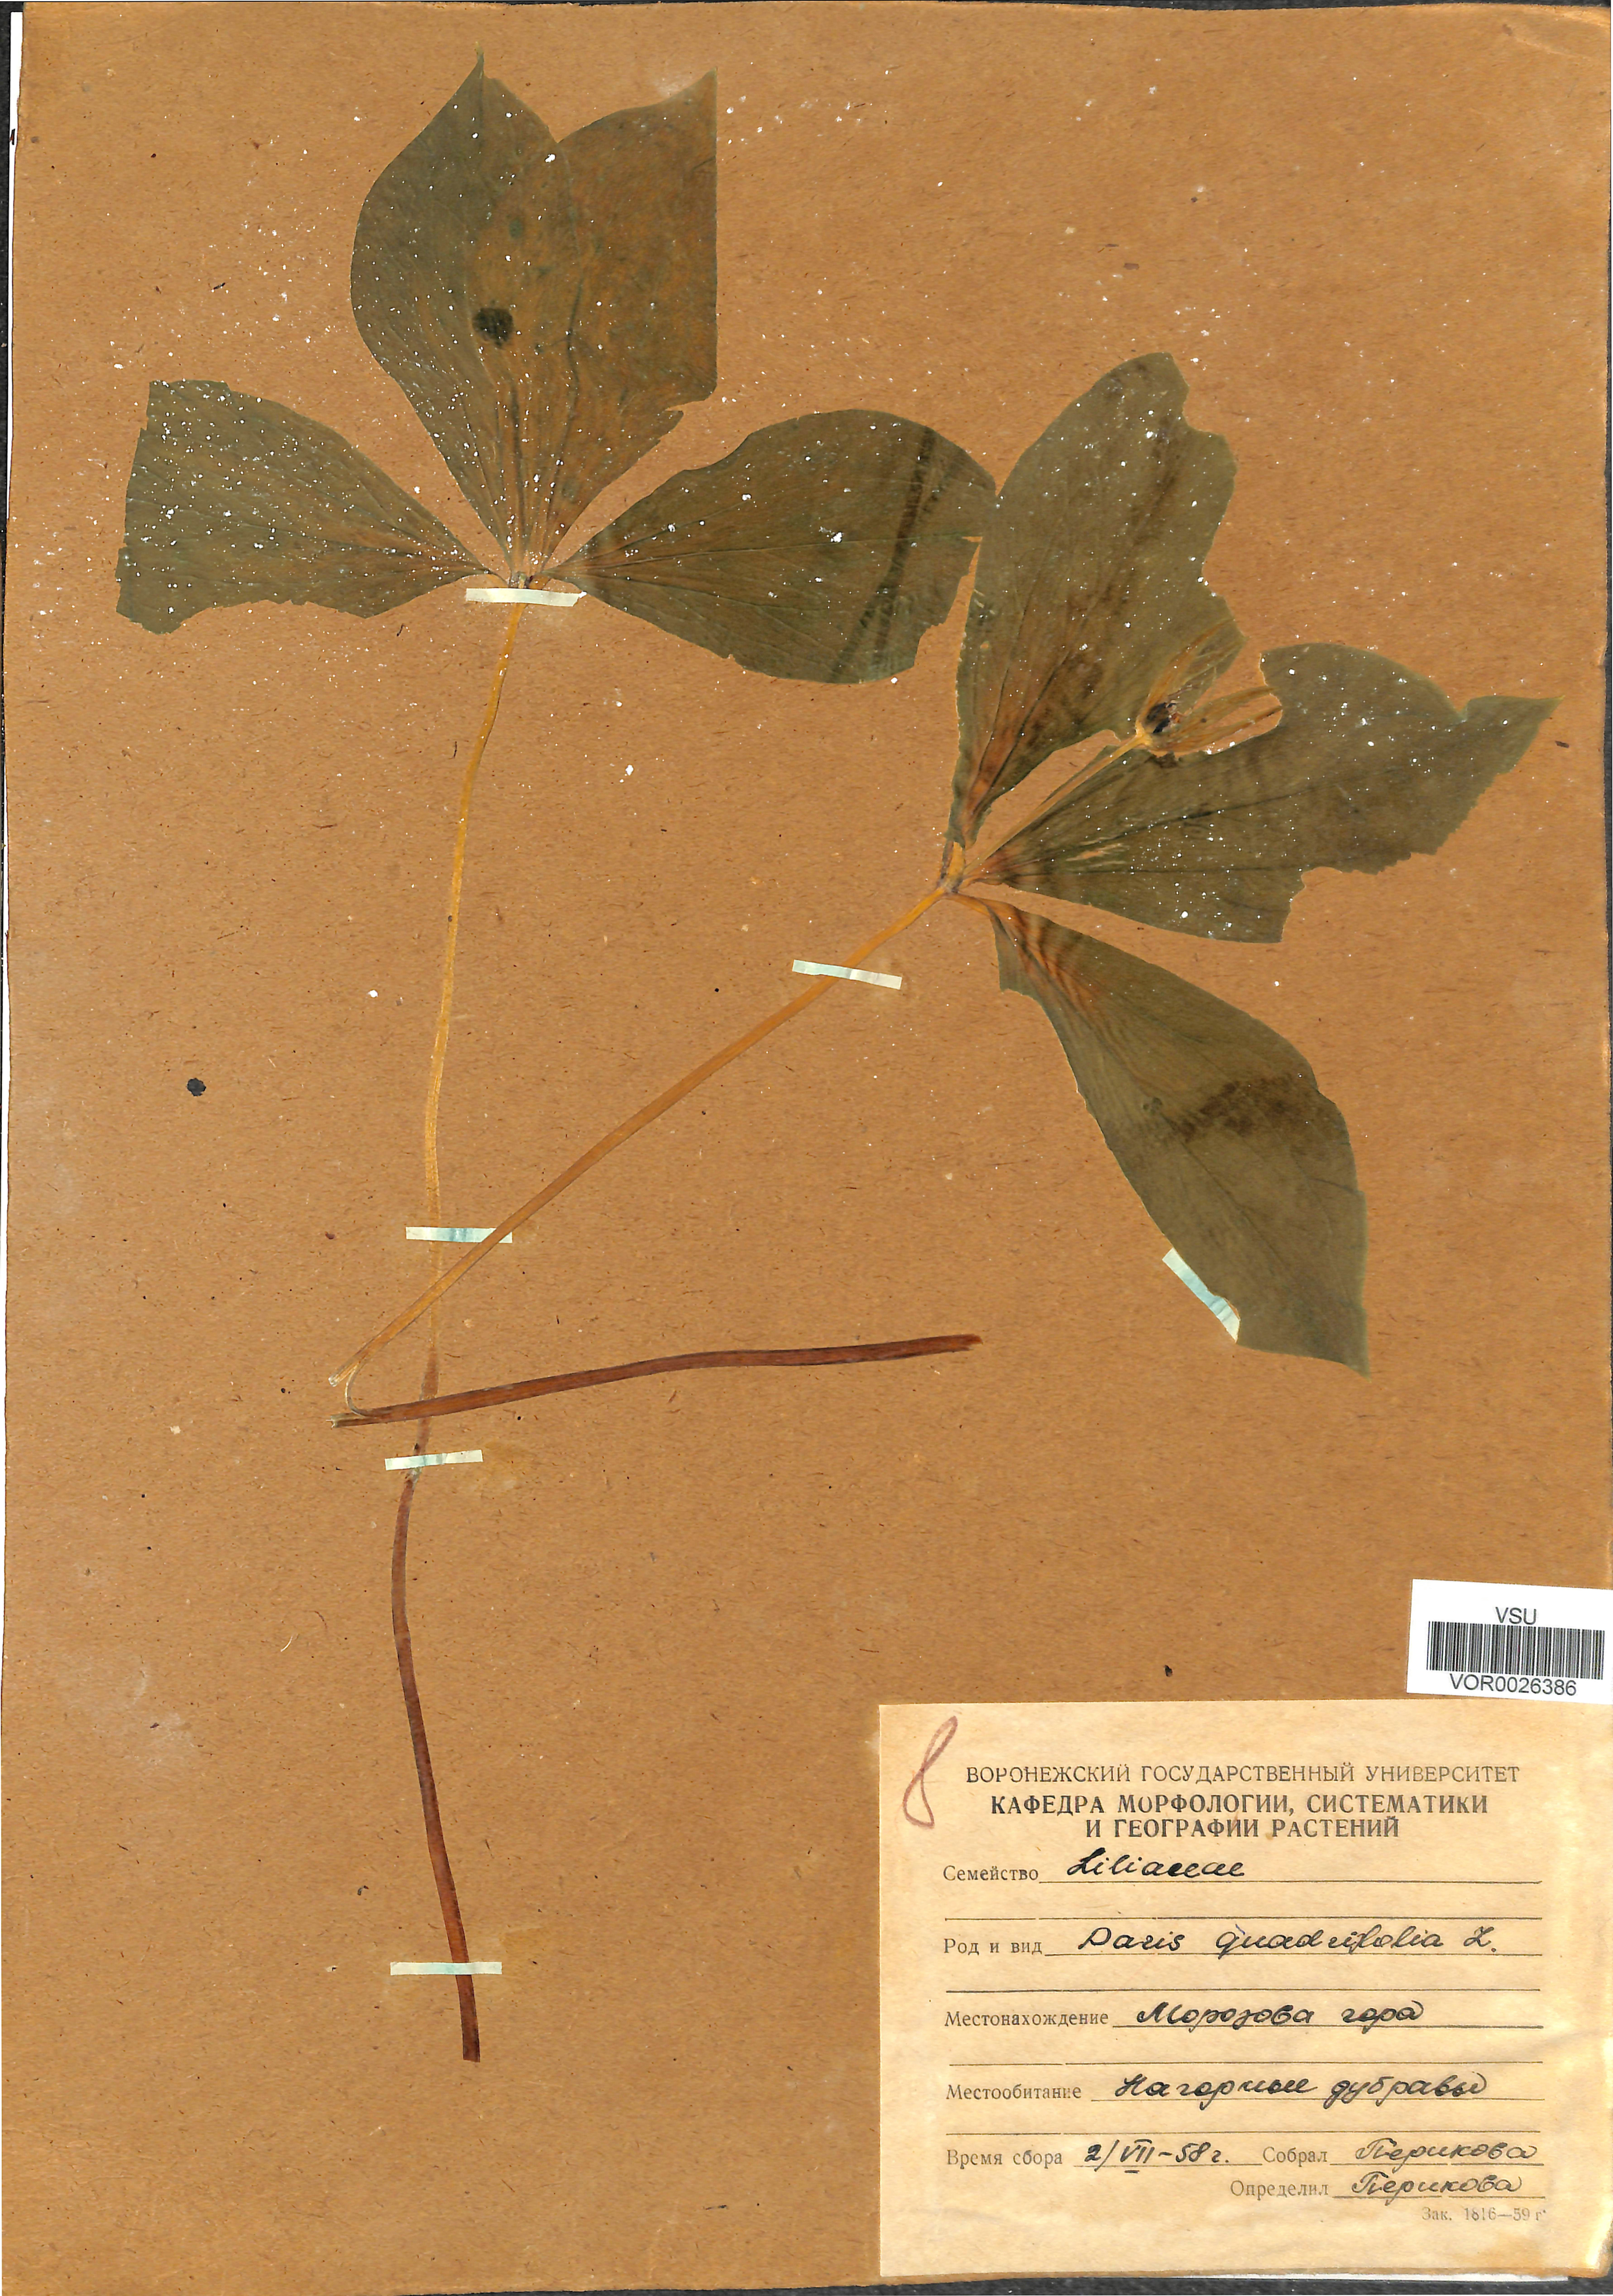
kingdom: Plantae
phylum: Tracheophyta
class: Liliopsida
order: Liliales
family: Melanthiaceae
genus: Paris
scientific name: Paris quadrifolia
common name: Herb-paris
